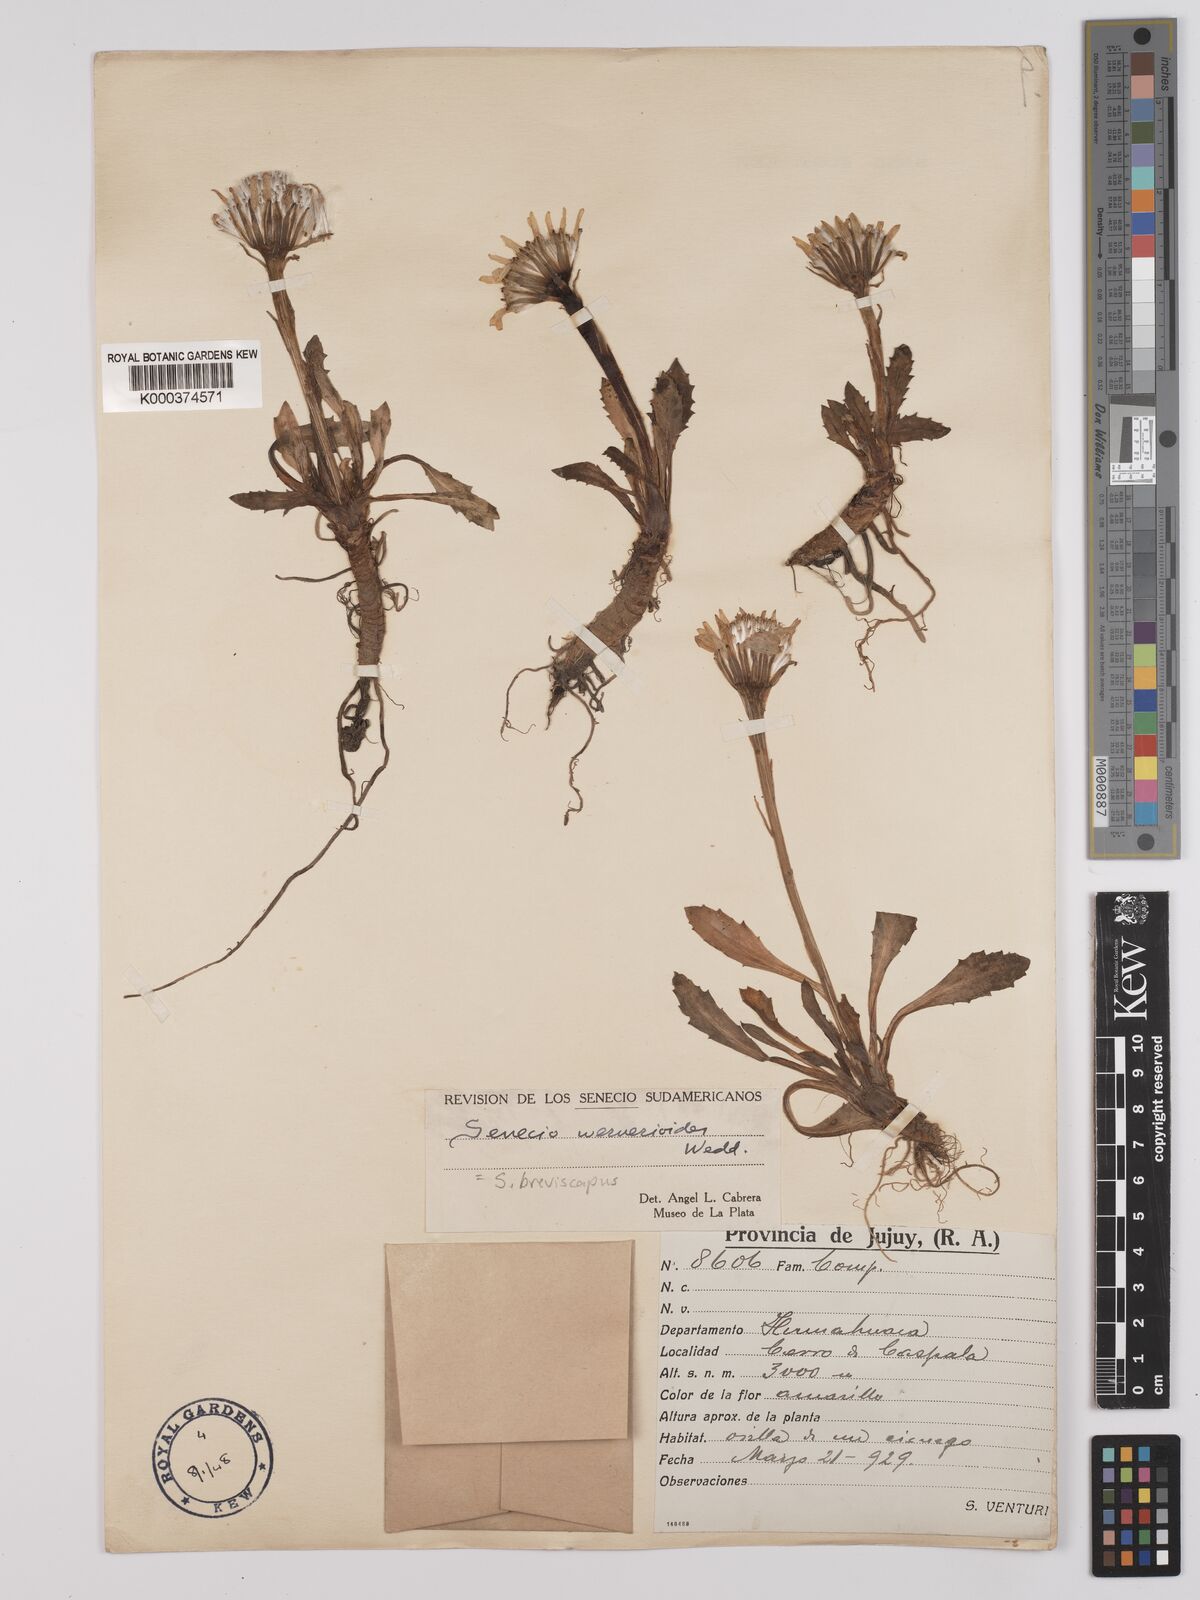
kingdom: Plantae
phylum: Tracheophyta
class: Magnoliopsida
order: Asterales
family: Asteraceae
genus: Curio
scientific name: Curio cicatricosus
